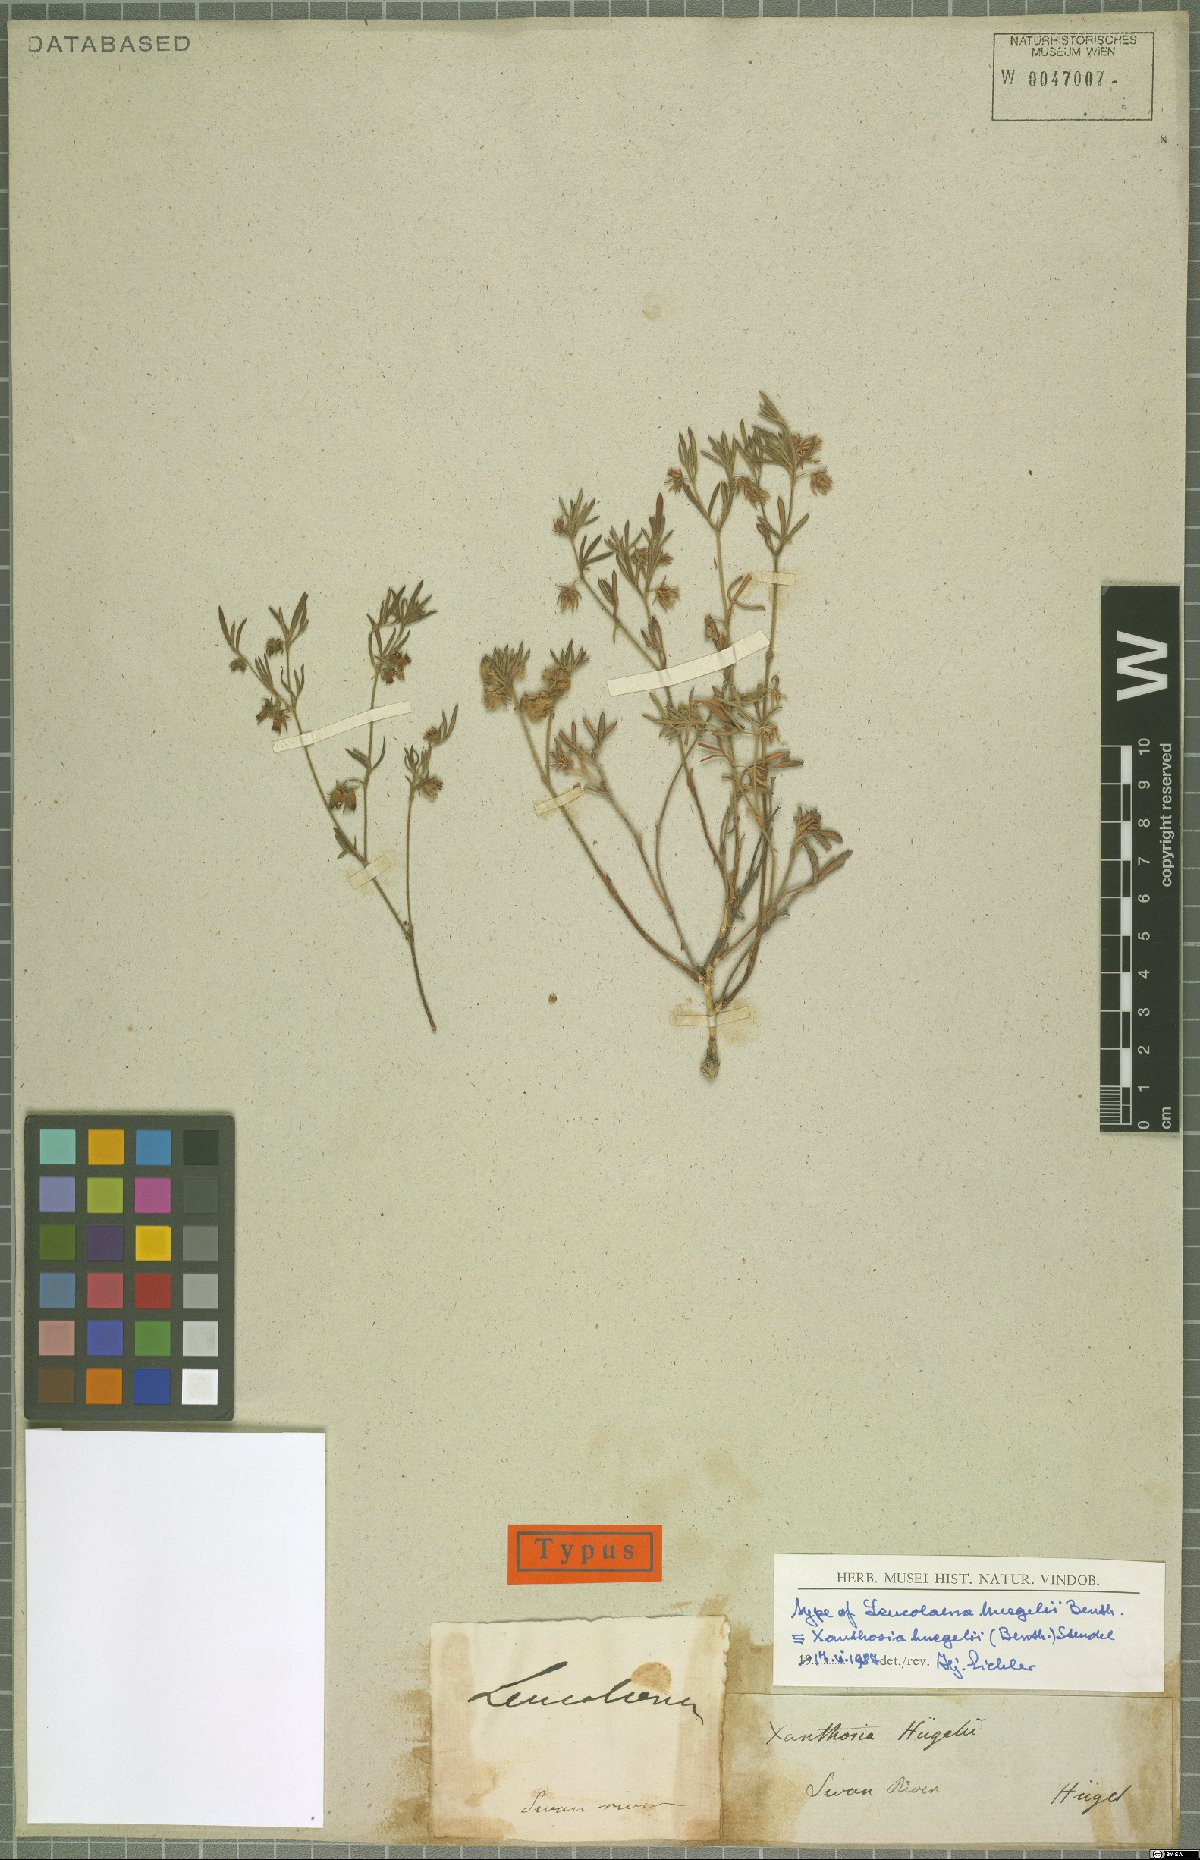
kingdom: Plantae
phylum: Tracheophyta
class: Magnoliopsida
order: Apiales
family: Apiaceae
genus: Xanthosia
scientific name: Xanthosia huegelii
